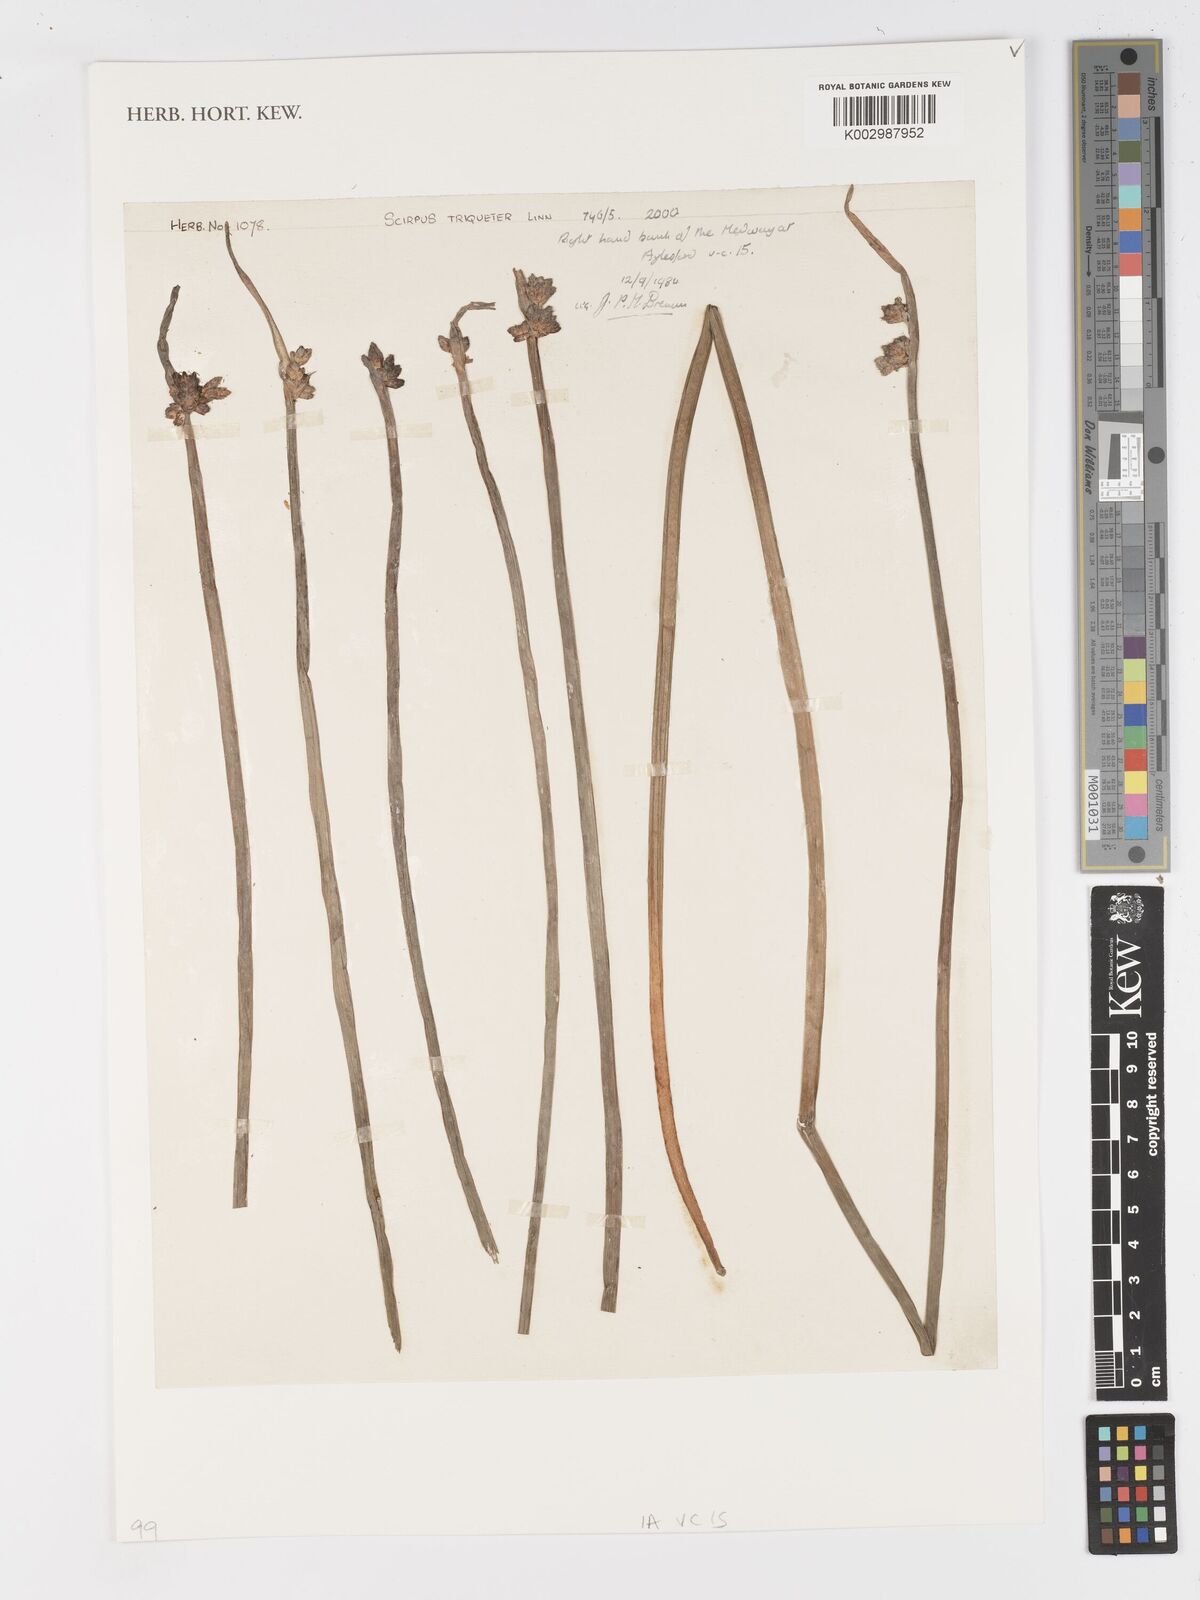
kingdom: Plantae
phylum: Tracheophyta
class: Liliopsida
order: Poales
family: Cyperaceae
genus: Schoenoplectus
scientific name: Schoenoplectus triqueter
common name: Triangular club-rush
